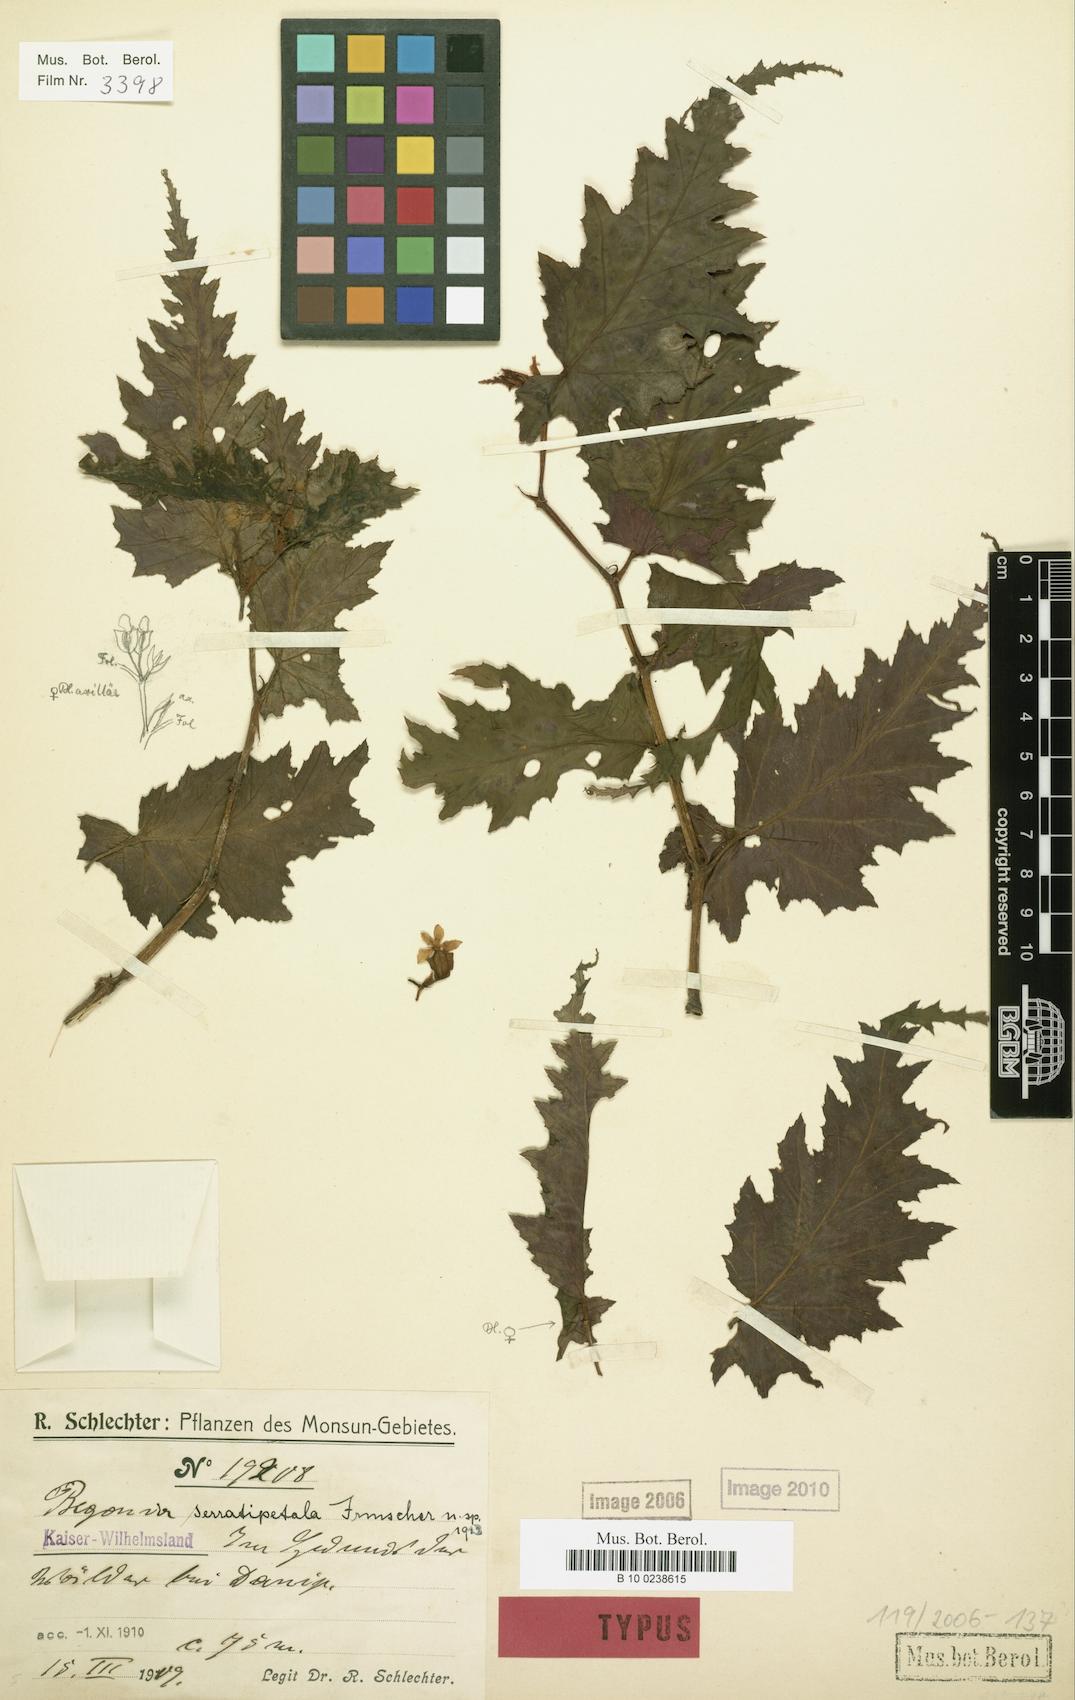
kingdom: Plantae
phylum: Tracheophyta
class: Magnoliopsida
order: Cucurbitales
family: Begoniaceae
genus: Begonia
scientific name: Begonia serratipetala
